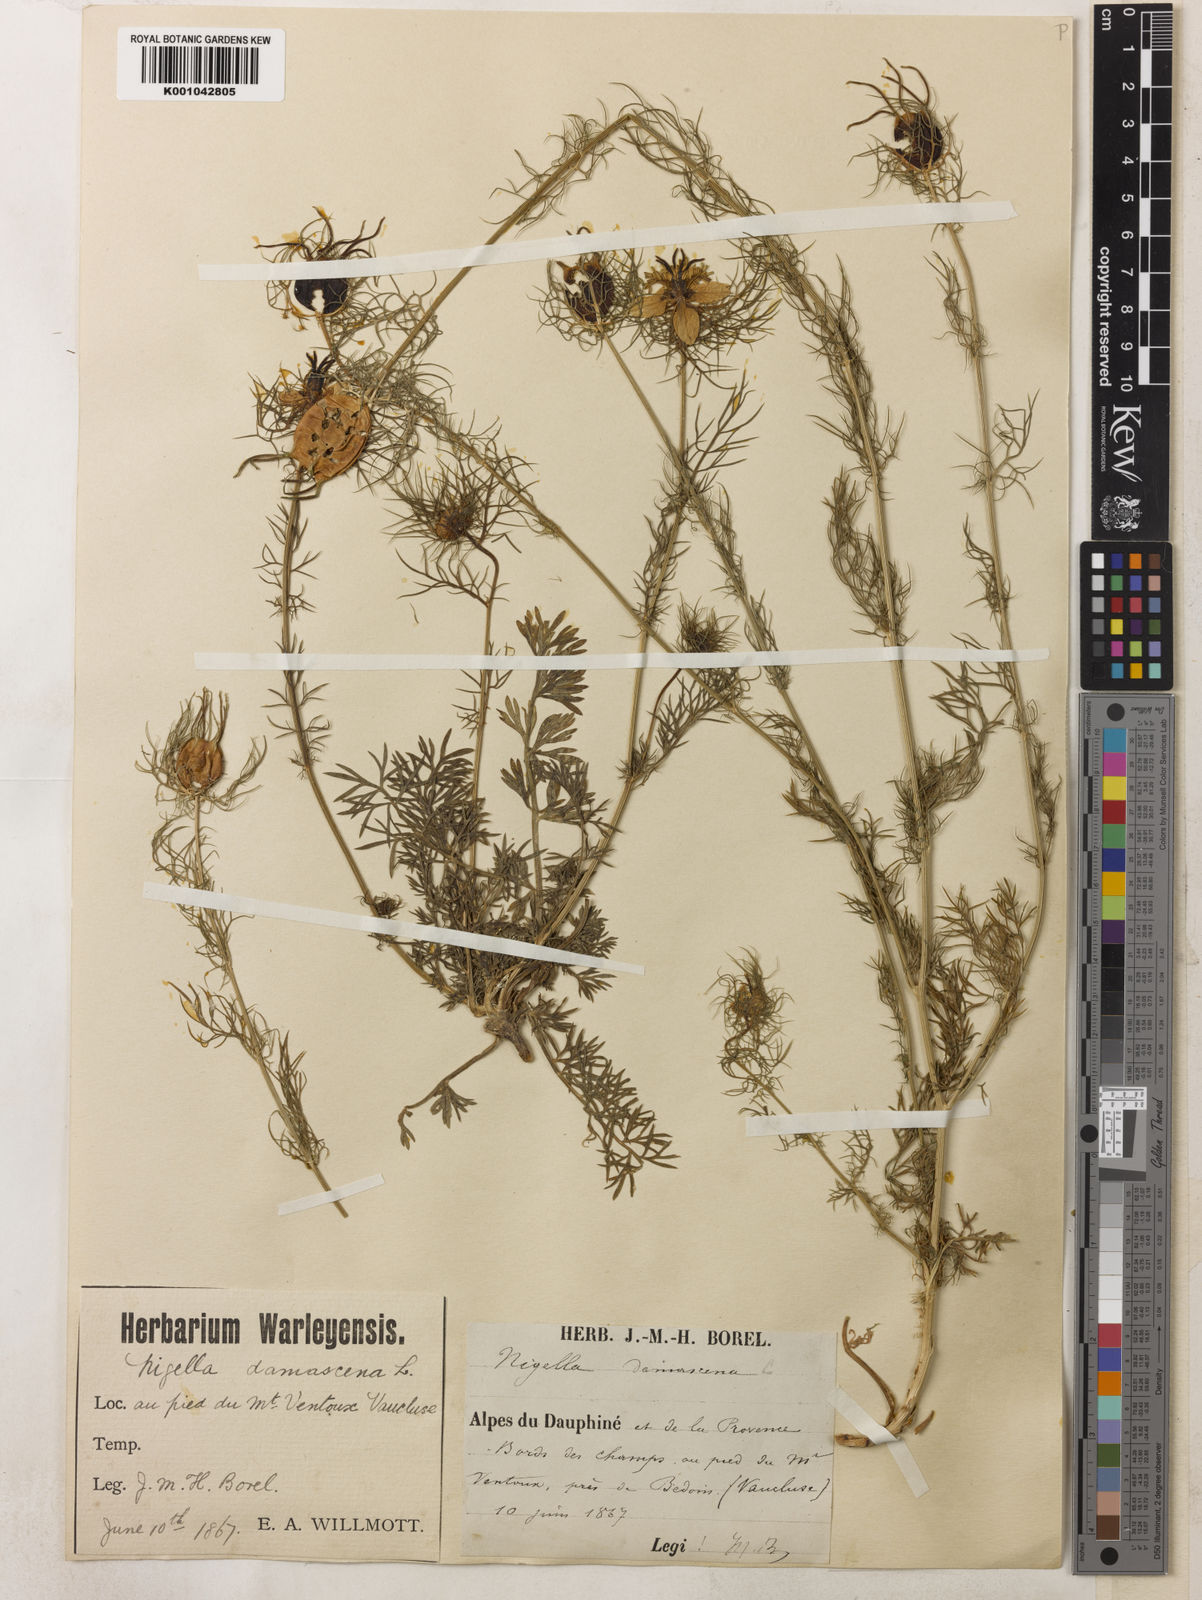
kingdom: Plantae
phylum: Tracheophyta
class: Magnoliopsida
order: Ranunculales
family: Ranunculaceae
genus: Nigella
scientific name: Nigella damascena
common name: Love-in-a-mist
